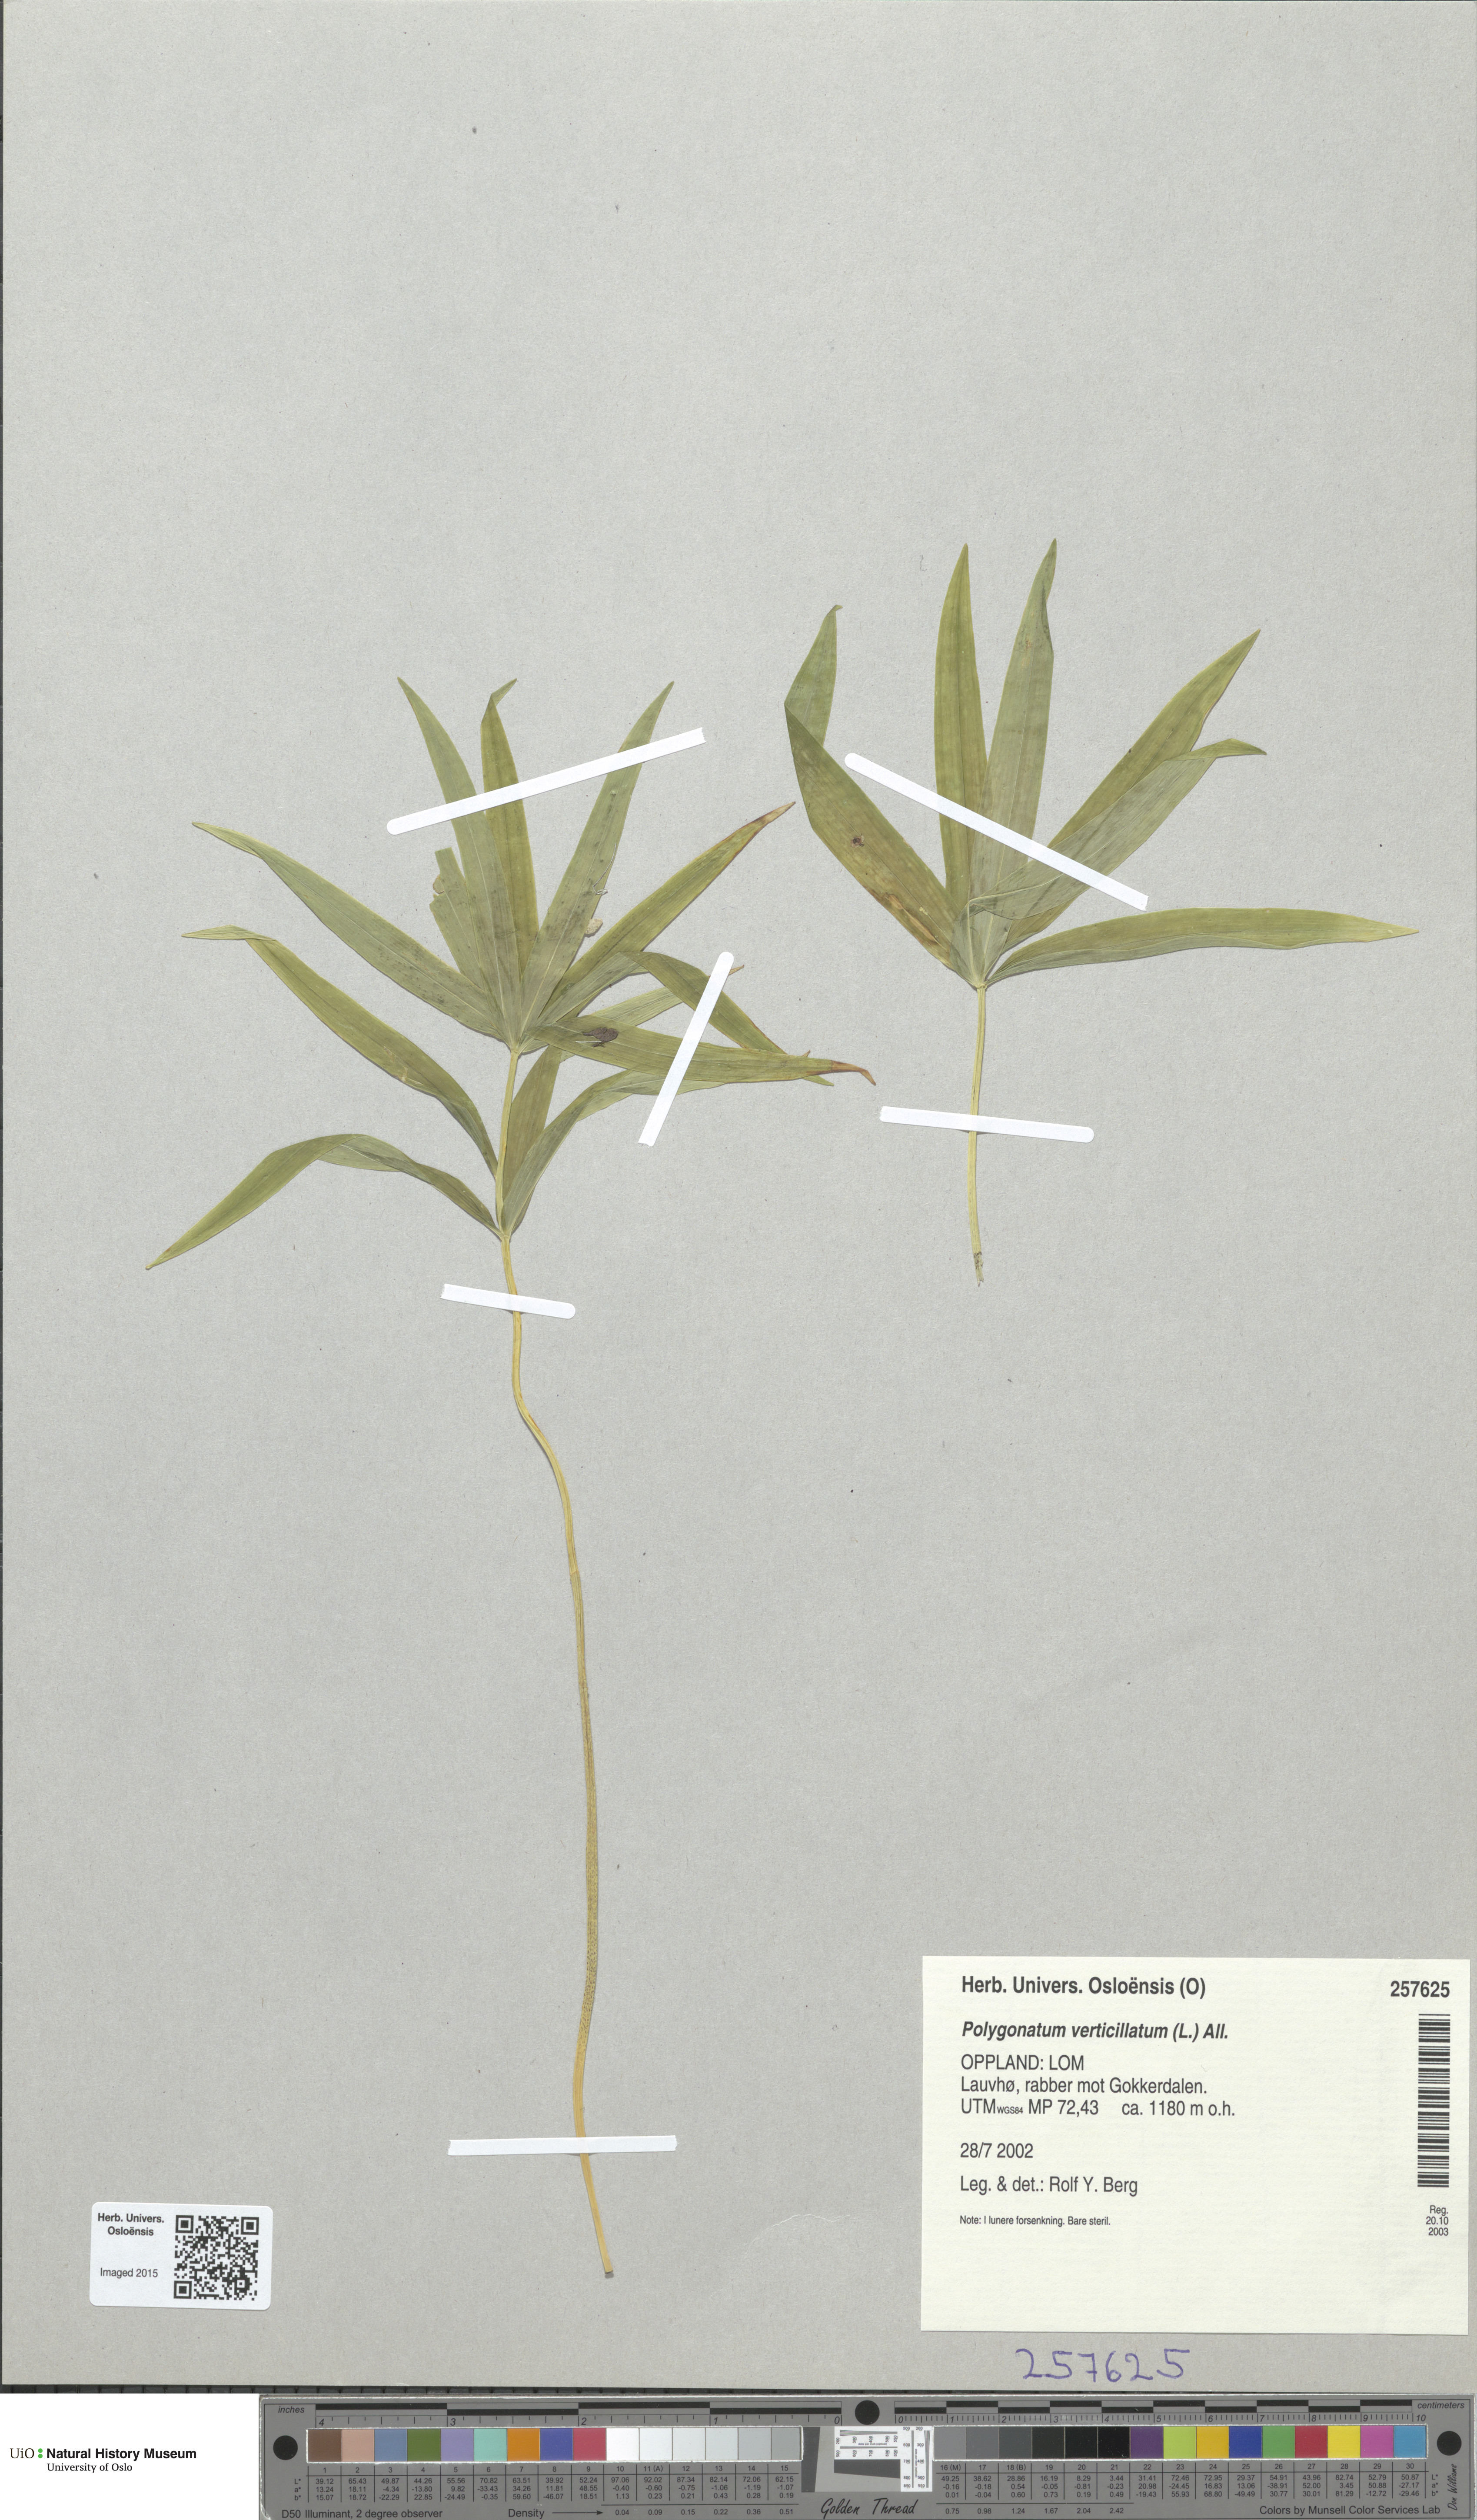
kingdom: Plantae
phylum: Tracheophyta
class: Liliopsida
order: Asparagales
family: Asparagaceae
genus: Polygonatum
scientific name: Polygonatum verticillatum
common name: Whorled solomon's-seal
